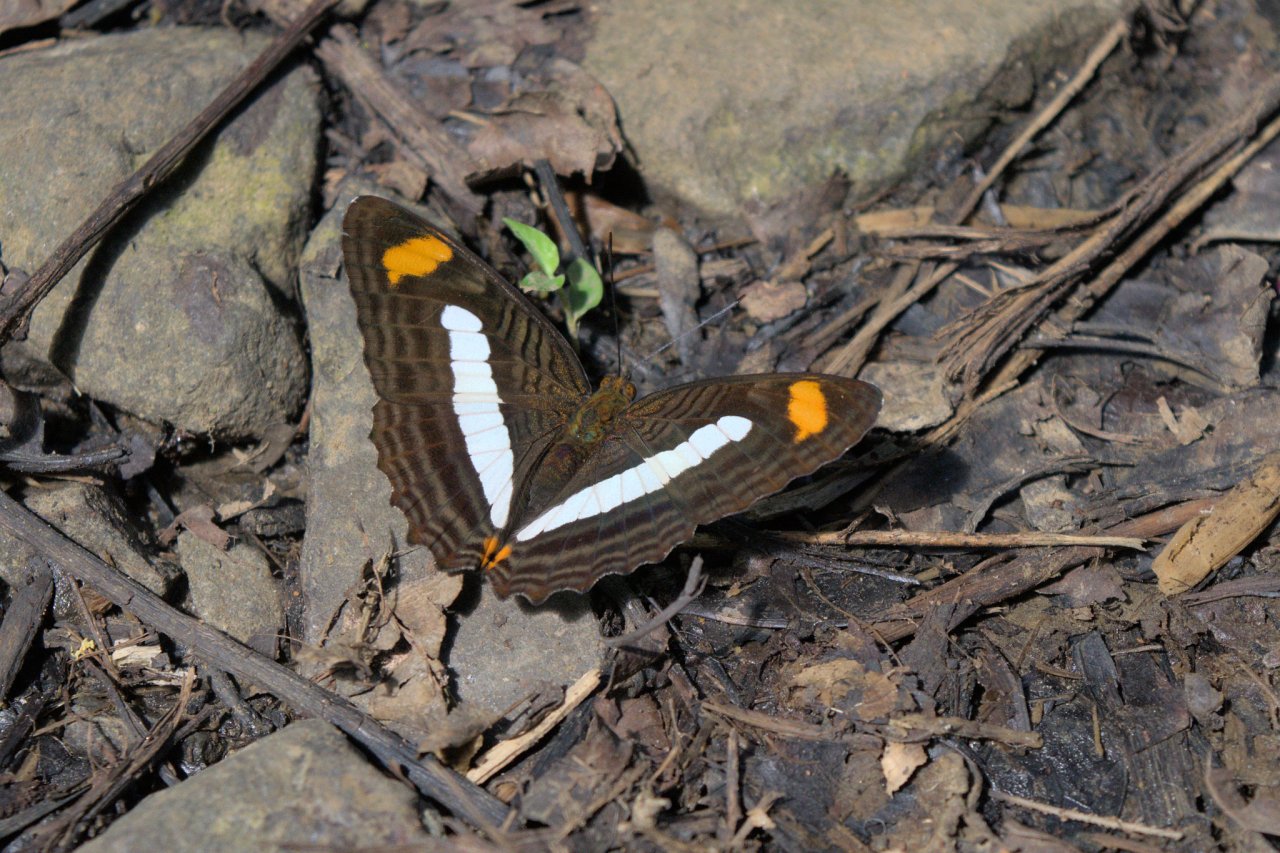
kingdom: Animalia
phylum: Arthropoda
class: Insecta
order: Lepidoptera
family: Nymphalidae
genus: Limenitis
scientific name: Limenitis Adelpha iphiclus
